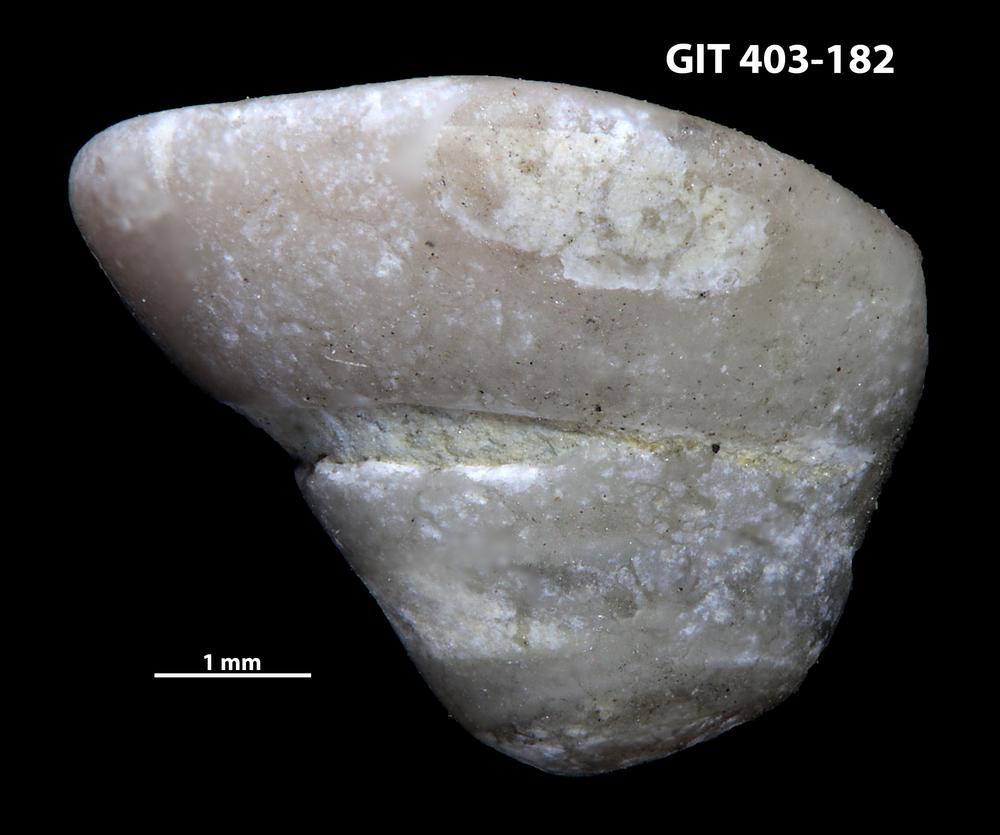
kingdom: Animalia
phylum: Mollusca
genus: Anticalyptraea
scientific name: Anticalyptraea westergaardi
